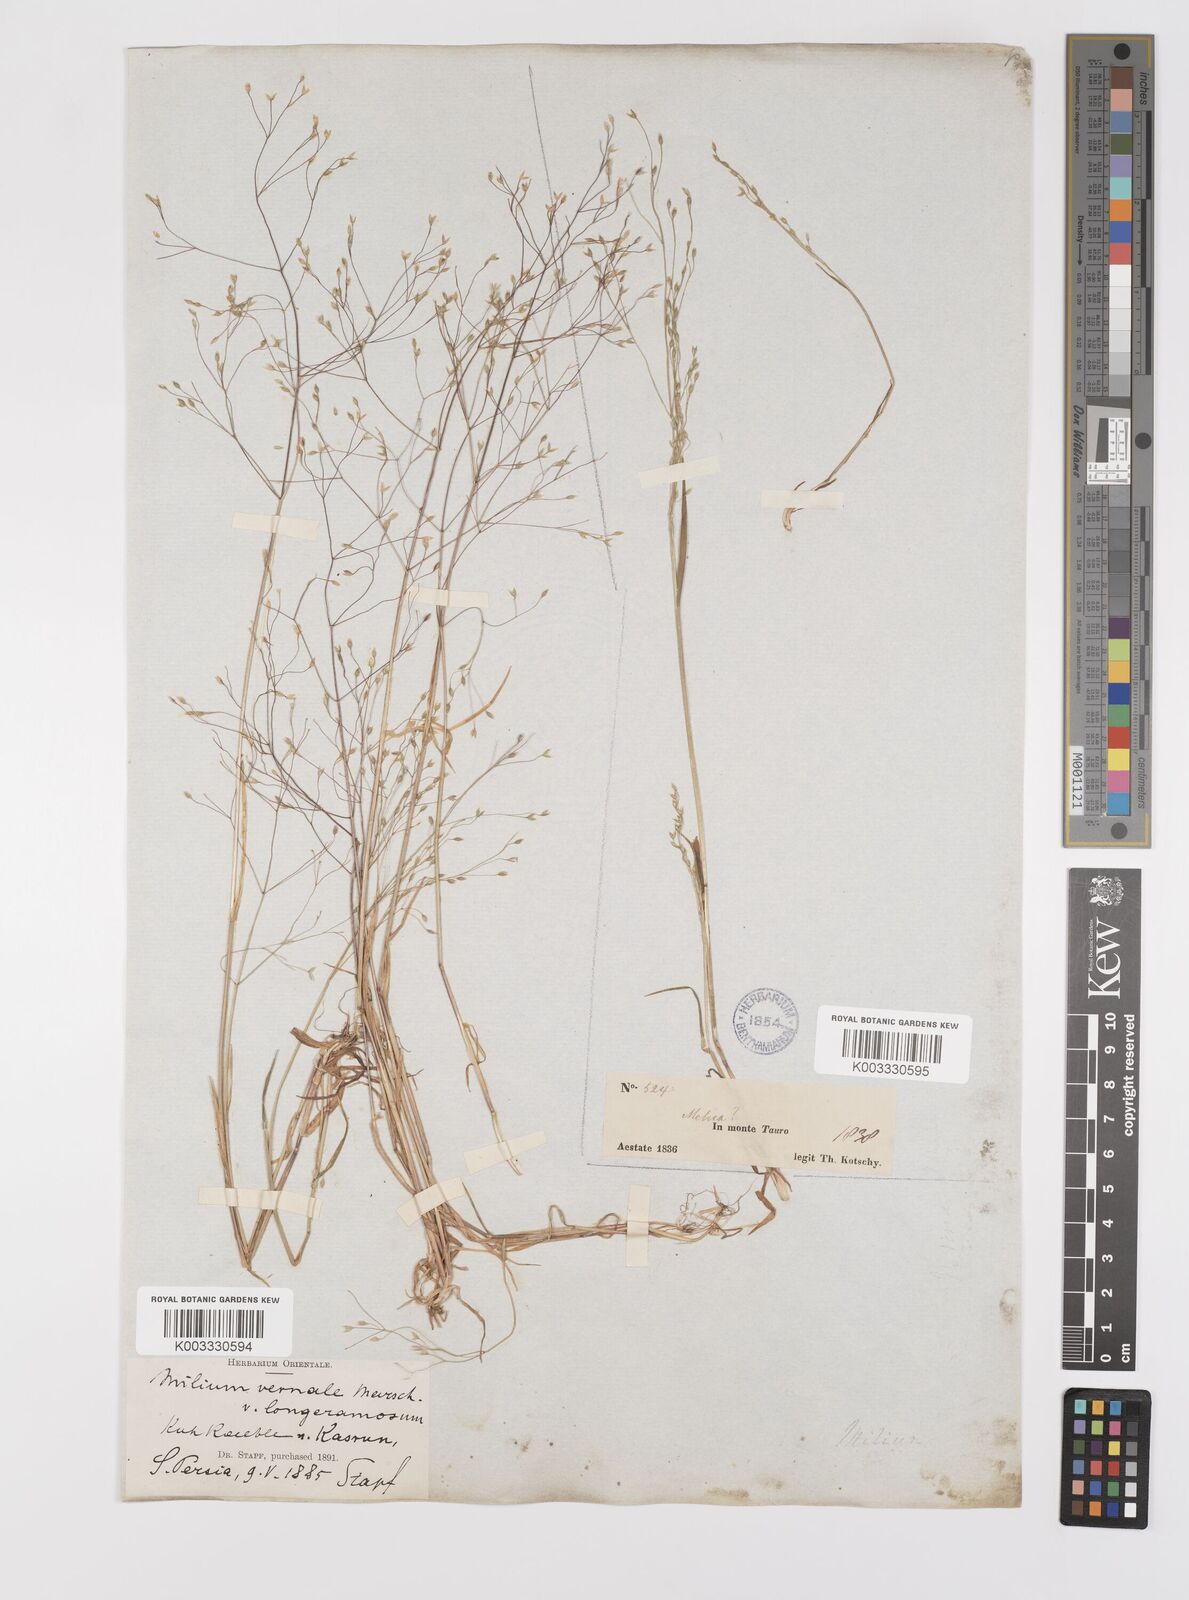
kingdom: Plantae
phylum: Tracheophyta
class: Liliopsida
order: Poales
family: Poaceae
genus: Milium
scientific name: Milium pedicellare
